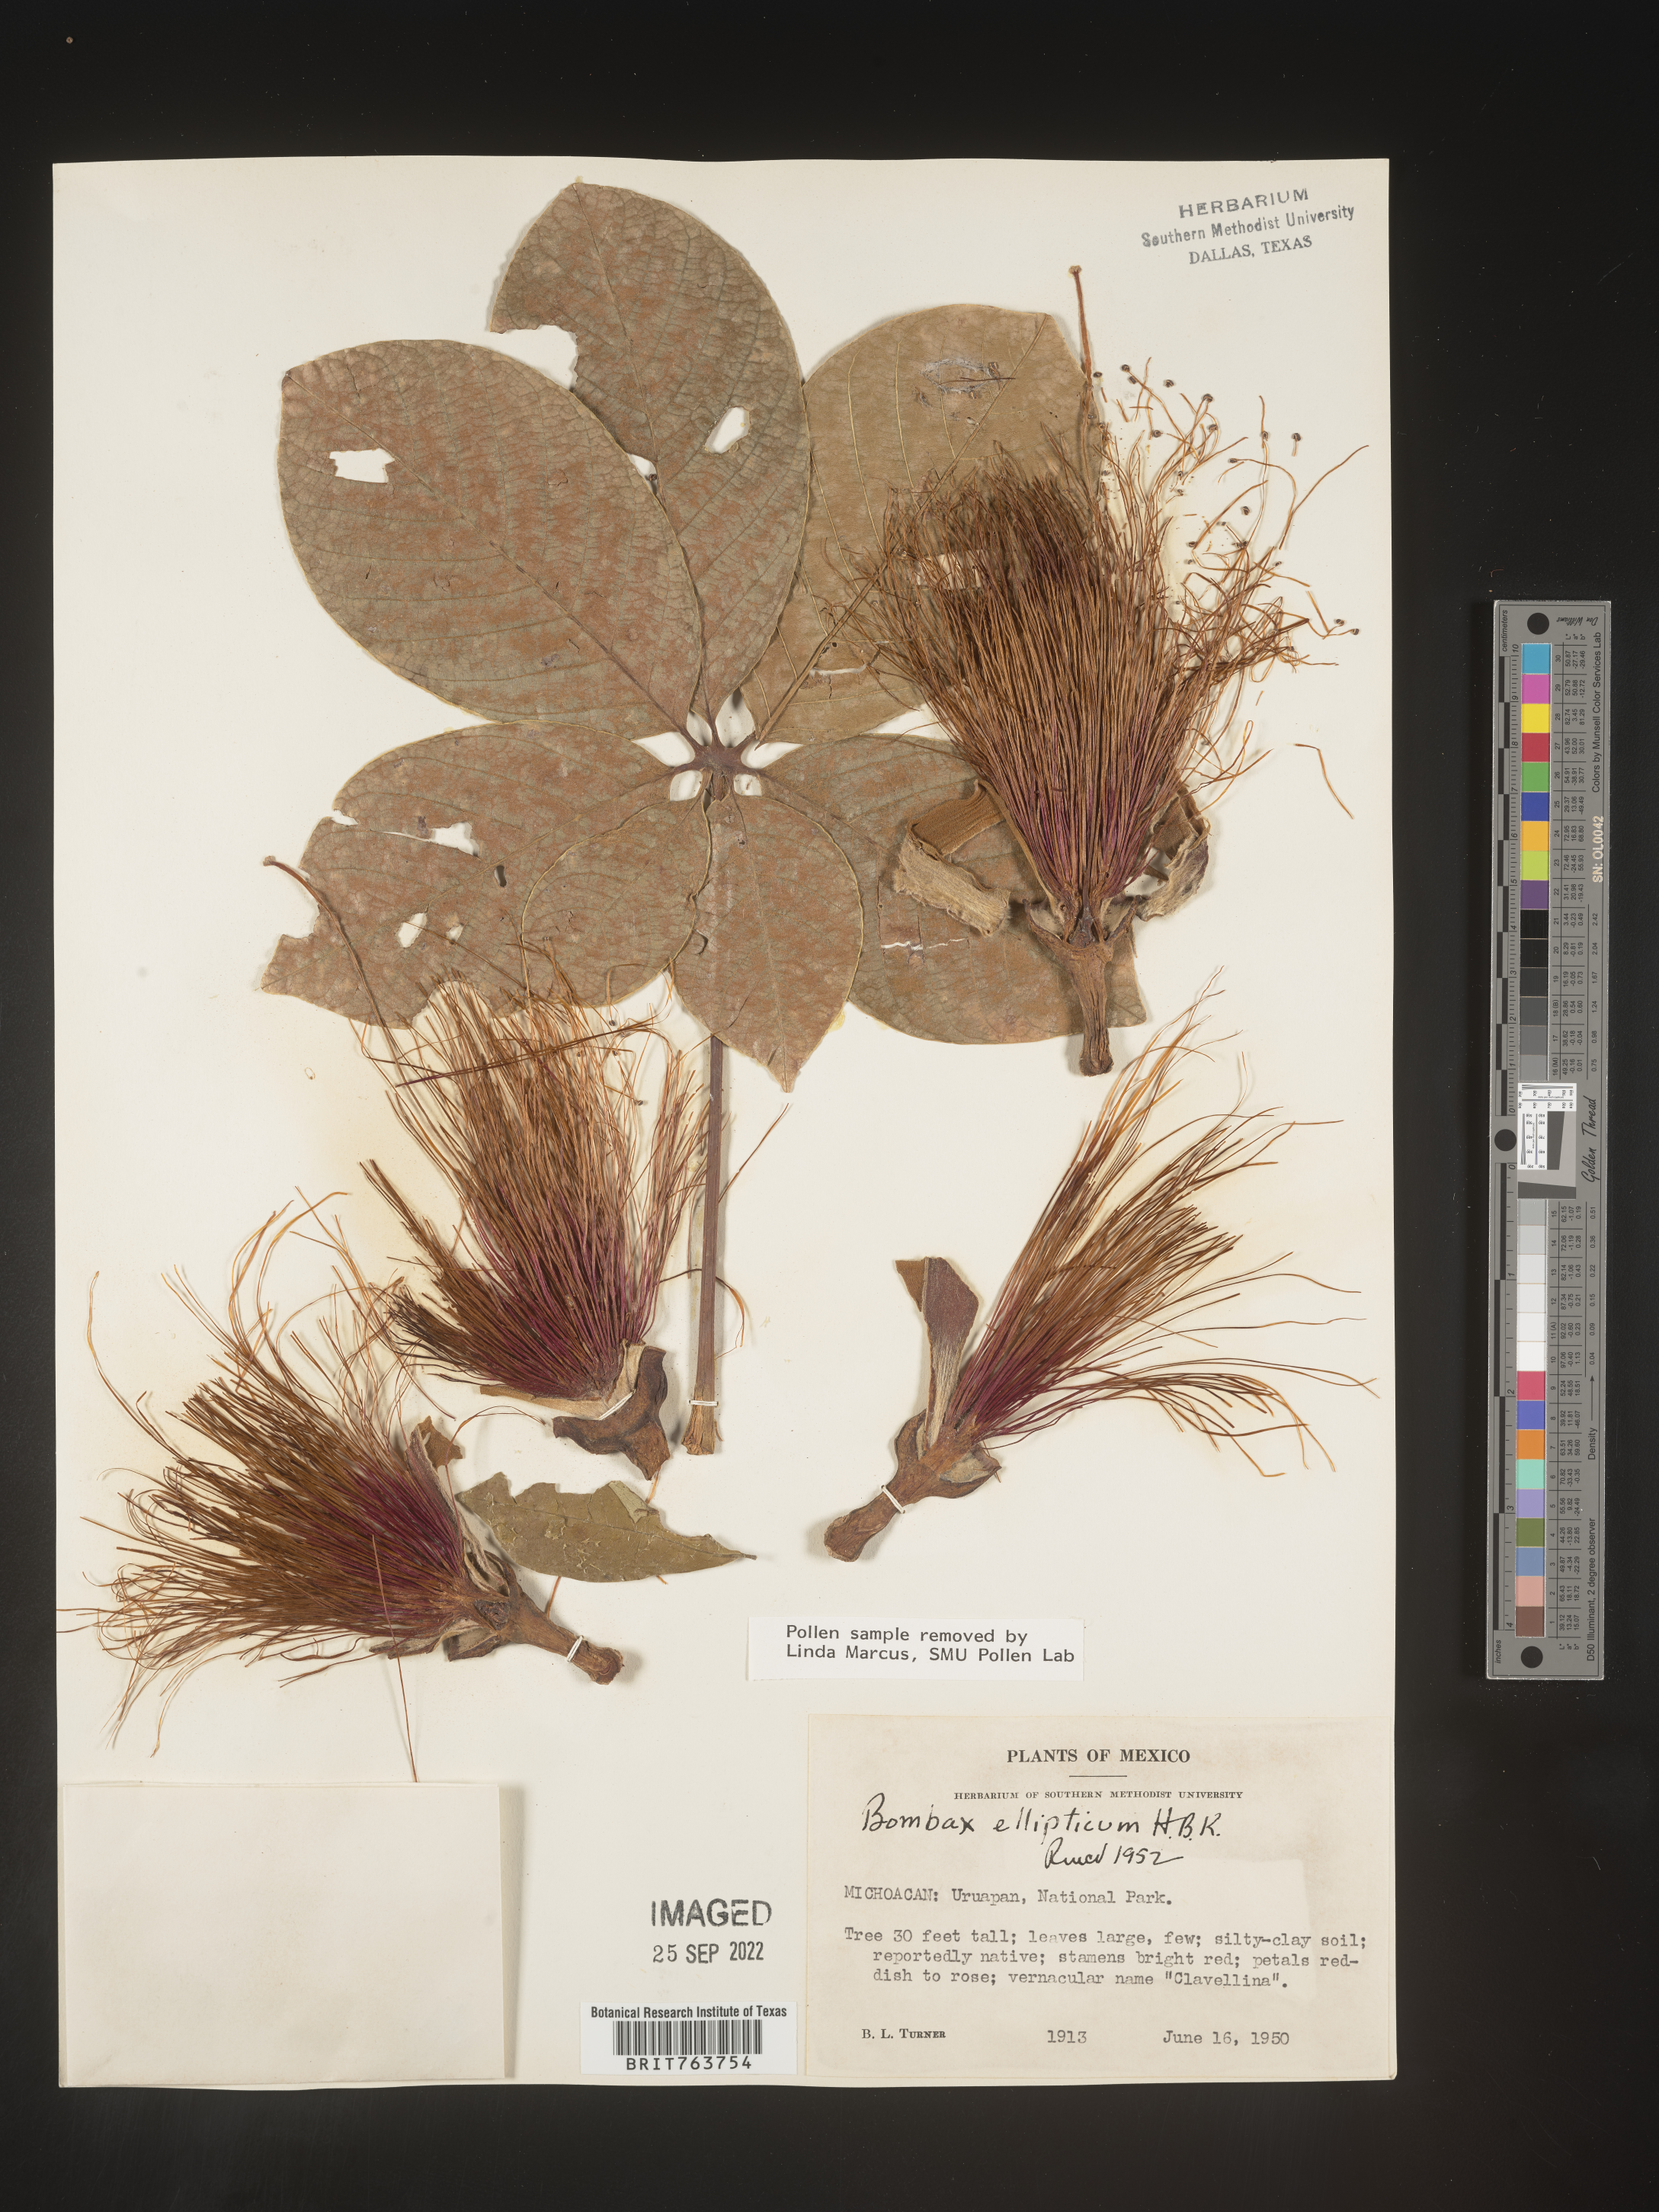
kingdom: Plantae
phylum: Tracheophyta
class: Magnoliopsida
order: Malvales
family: Malvaceae
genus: Bombax
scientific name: Bombax
